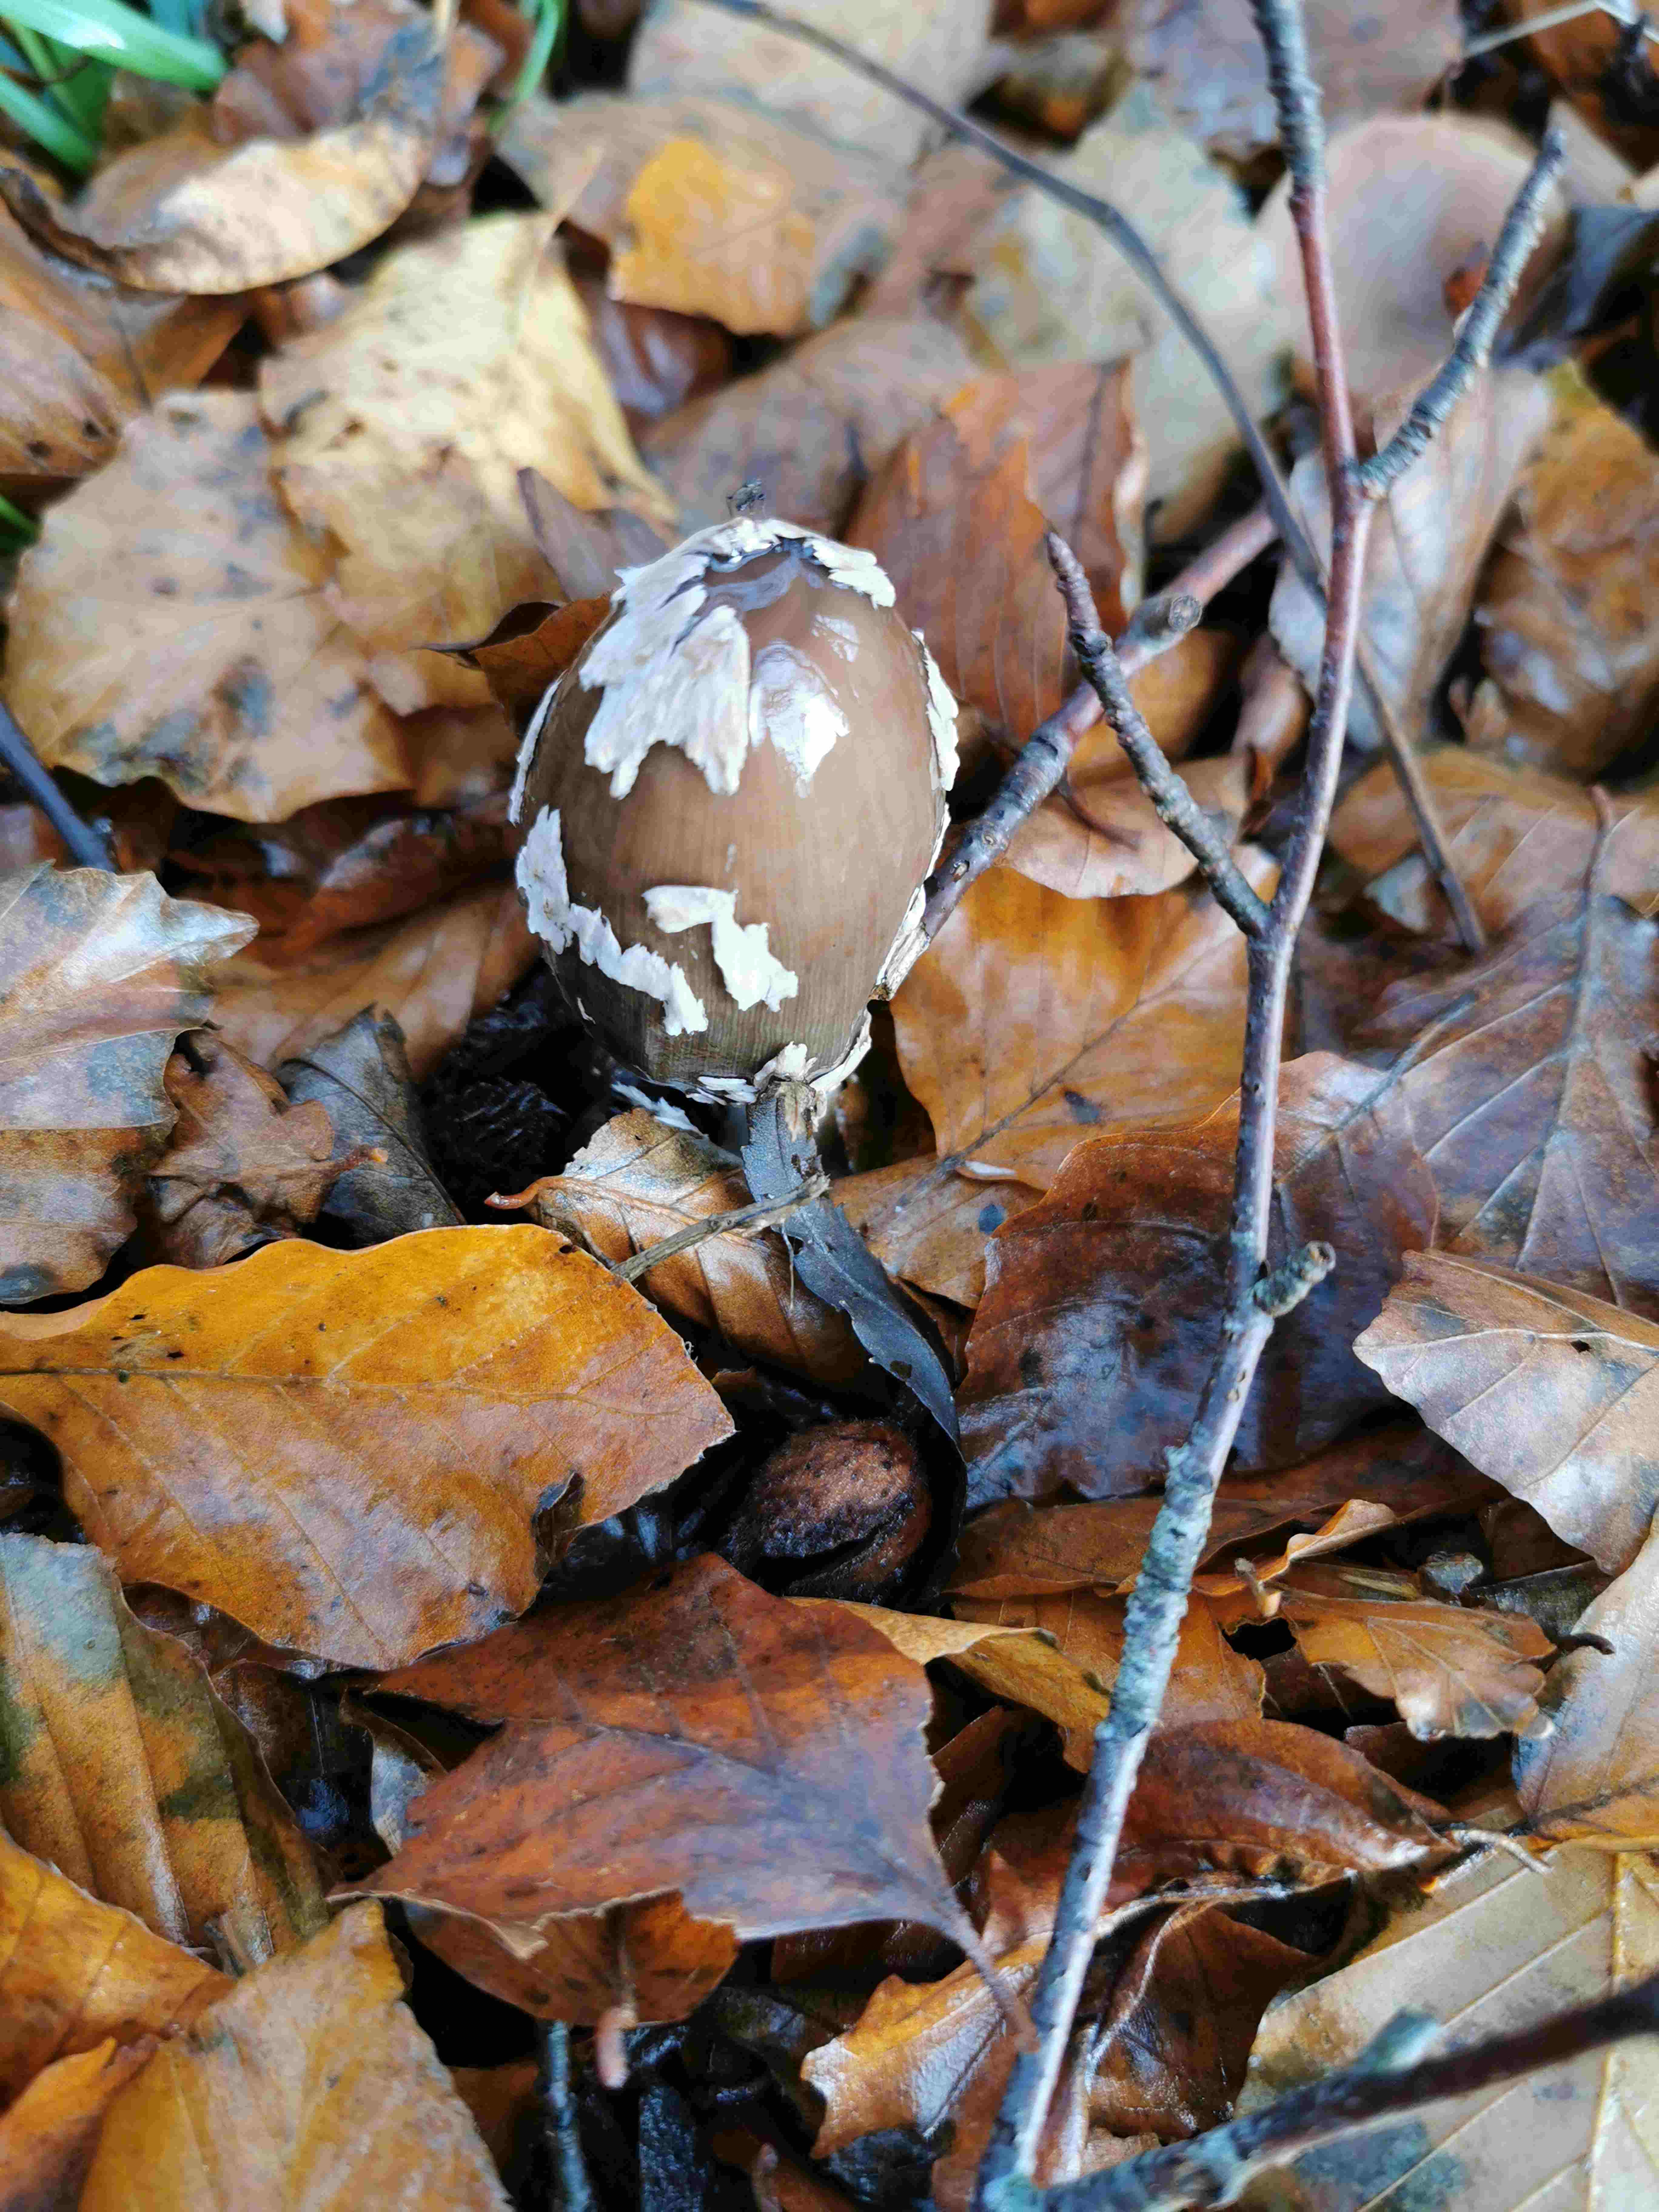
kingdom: Fungi
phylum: Basidiomycota
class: Agaricomycetes
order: Agaricales
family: Psathyrellaceae
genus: Coprinopsis
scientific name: Coprinopsis picacea
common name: skade-blækhat
